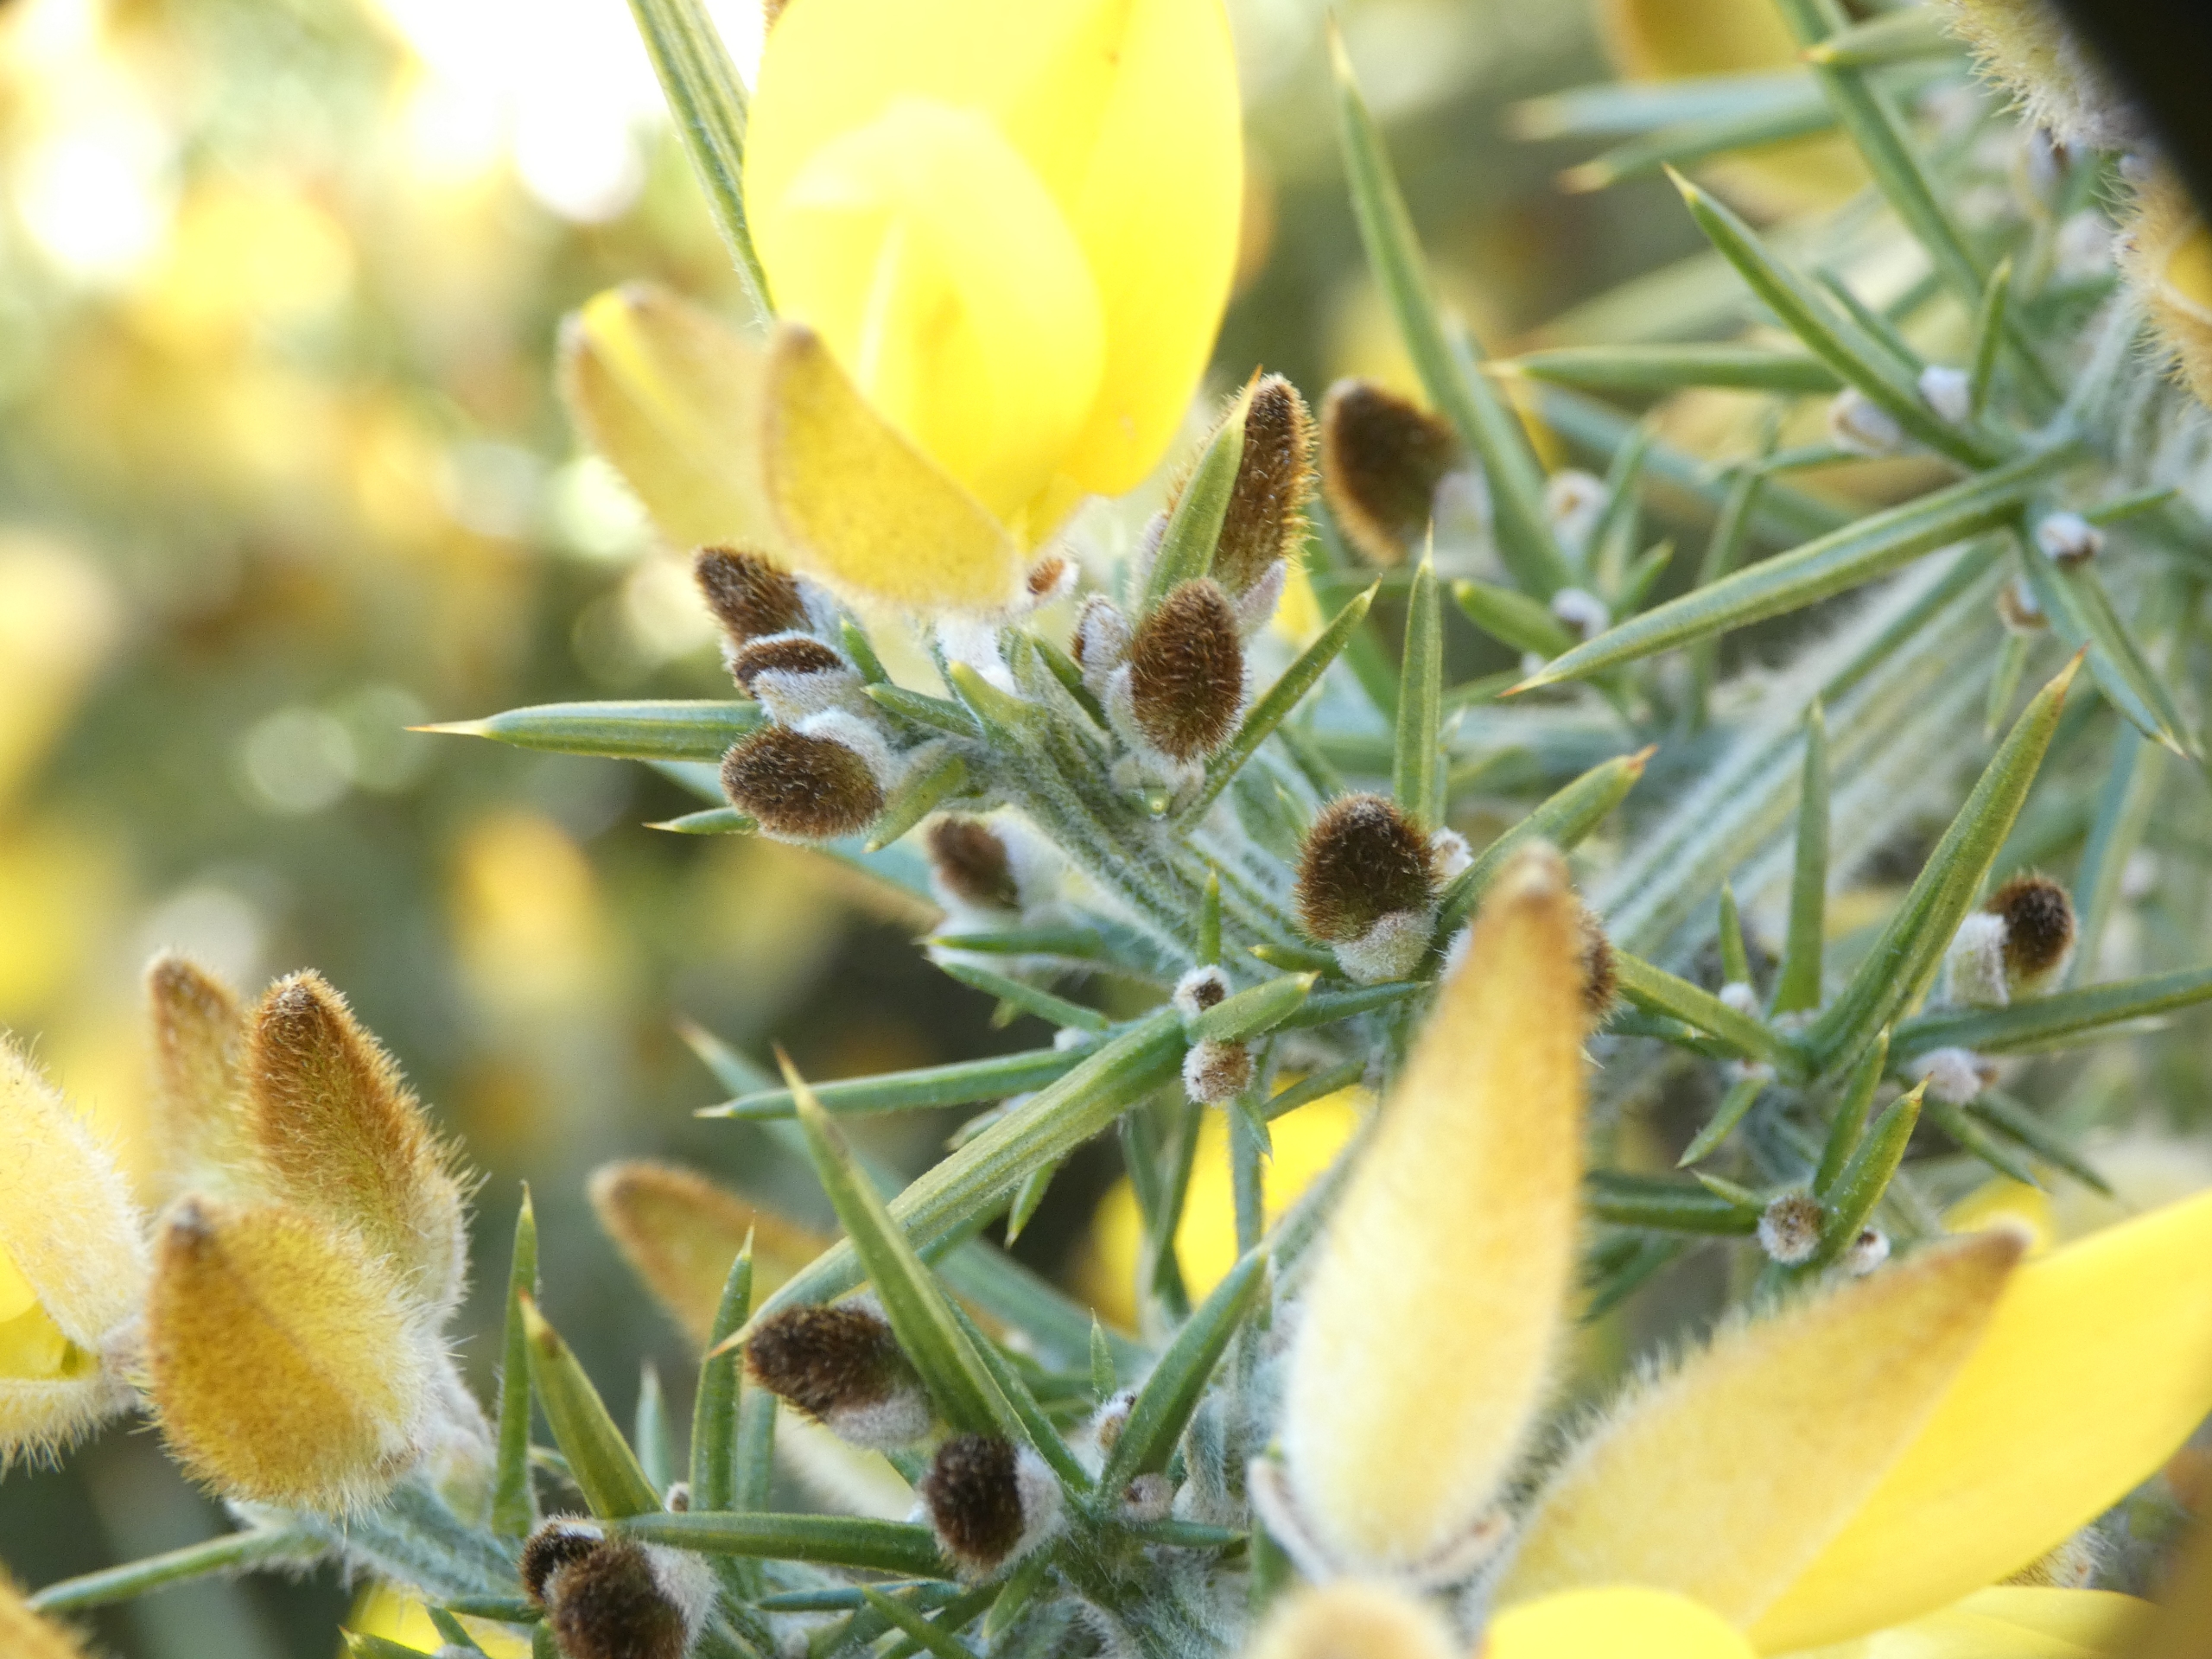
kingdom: Plantae
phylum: Tracheophyta
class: Magnoliopsida
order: Fabales
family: Fabaceae
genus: Ulex
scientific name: Ulex europaeus
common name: Tornblad
